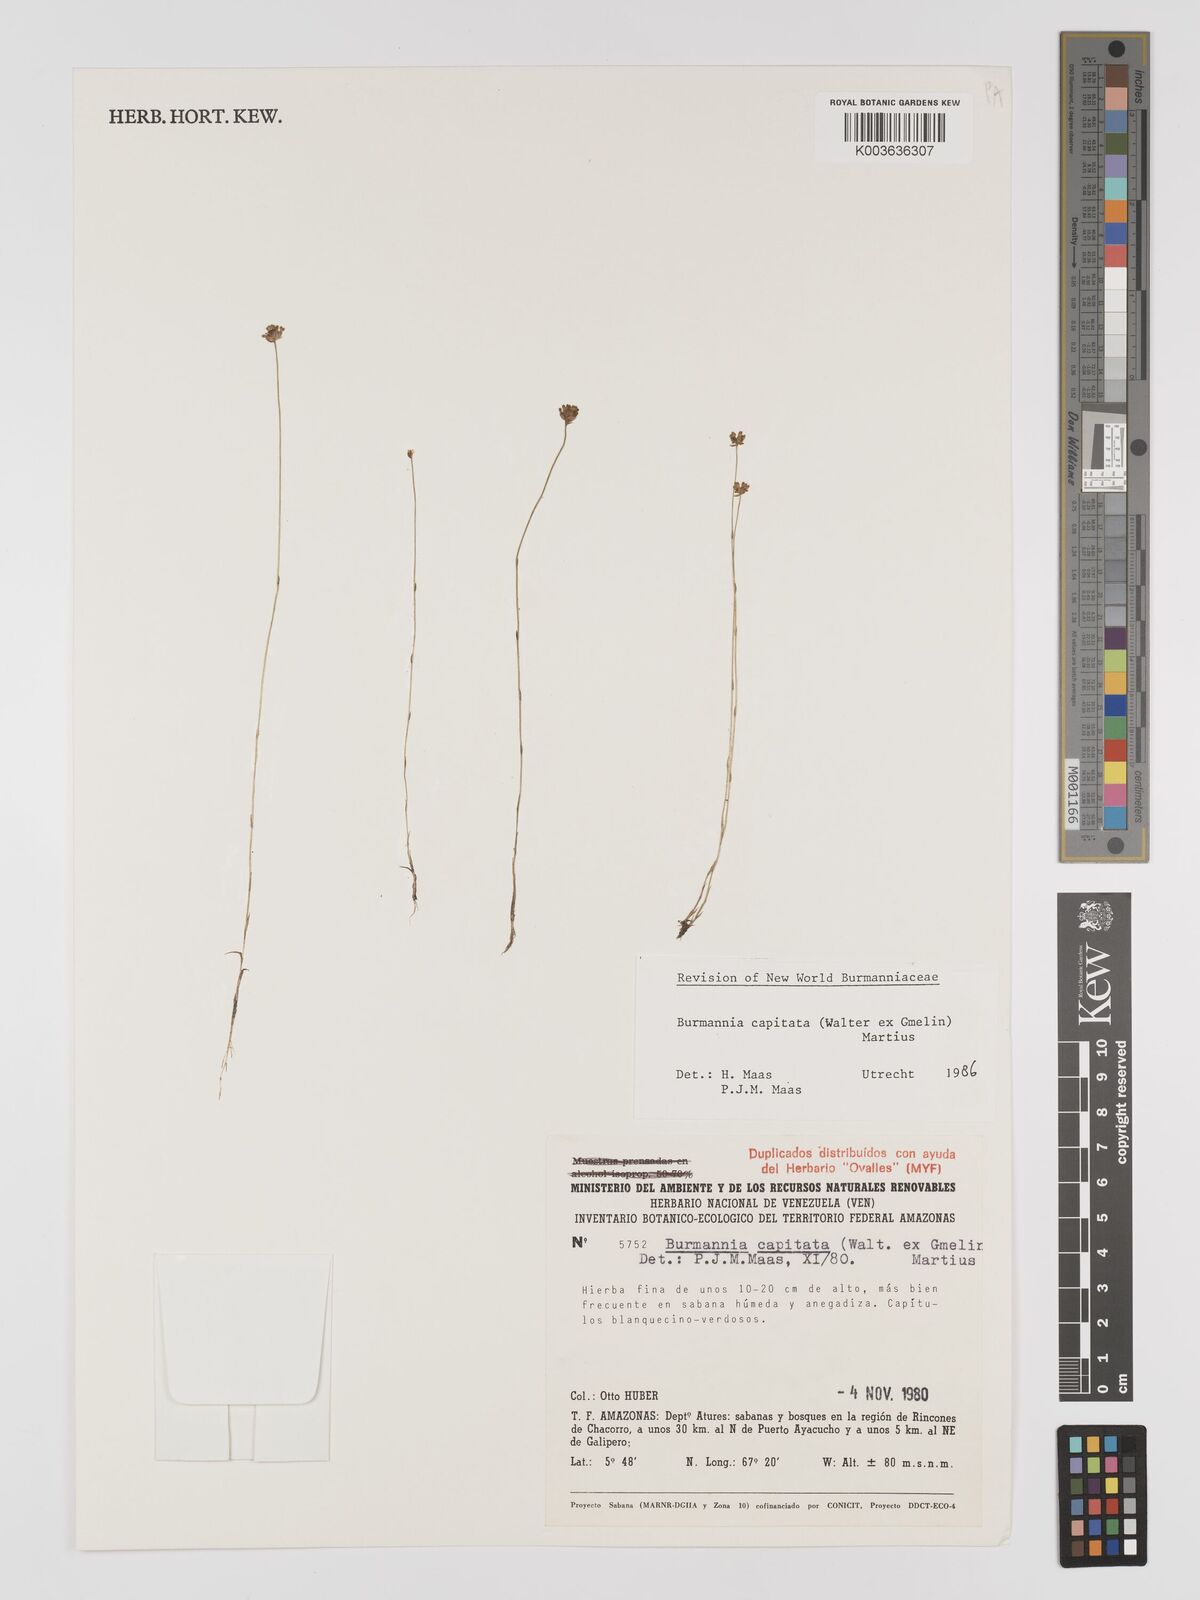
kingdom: Plantae
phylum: Tracheophyta
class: Liliopsida
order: Dioscoreales
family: Burmanniaceae
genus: Burmannia
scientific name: Burmannia capitata
